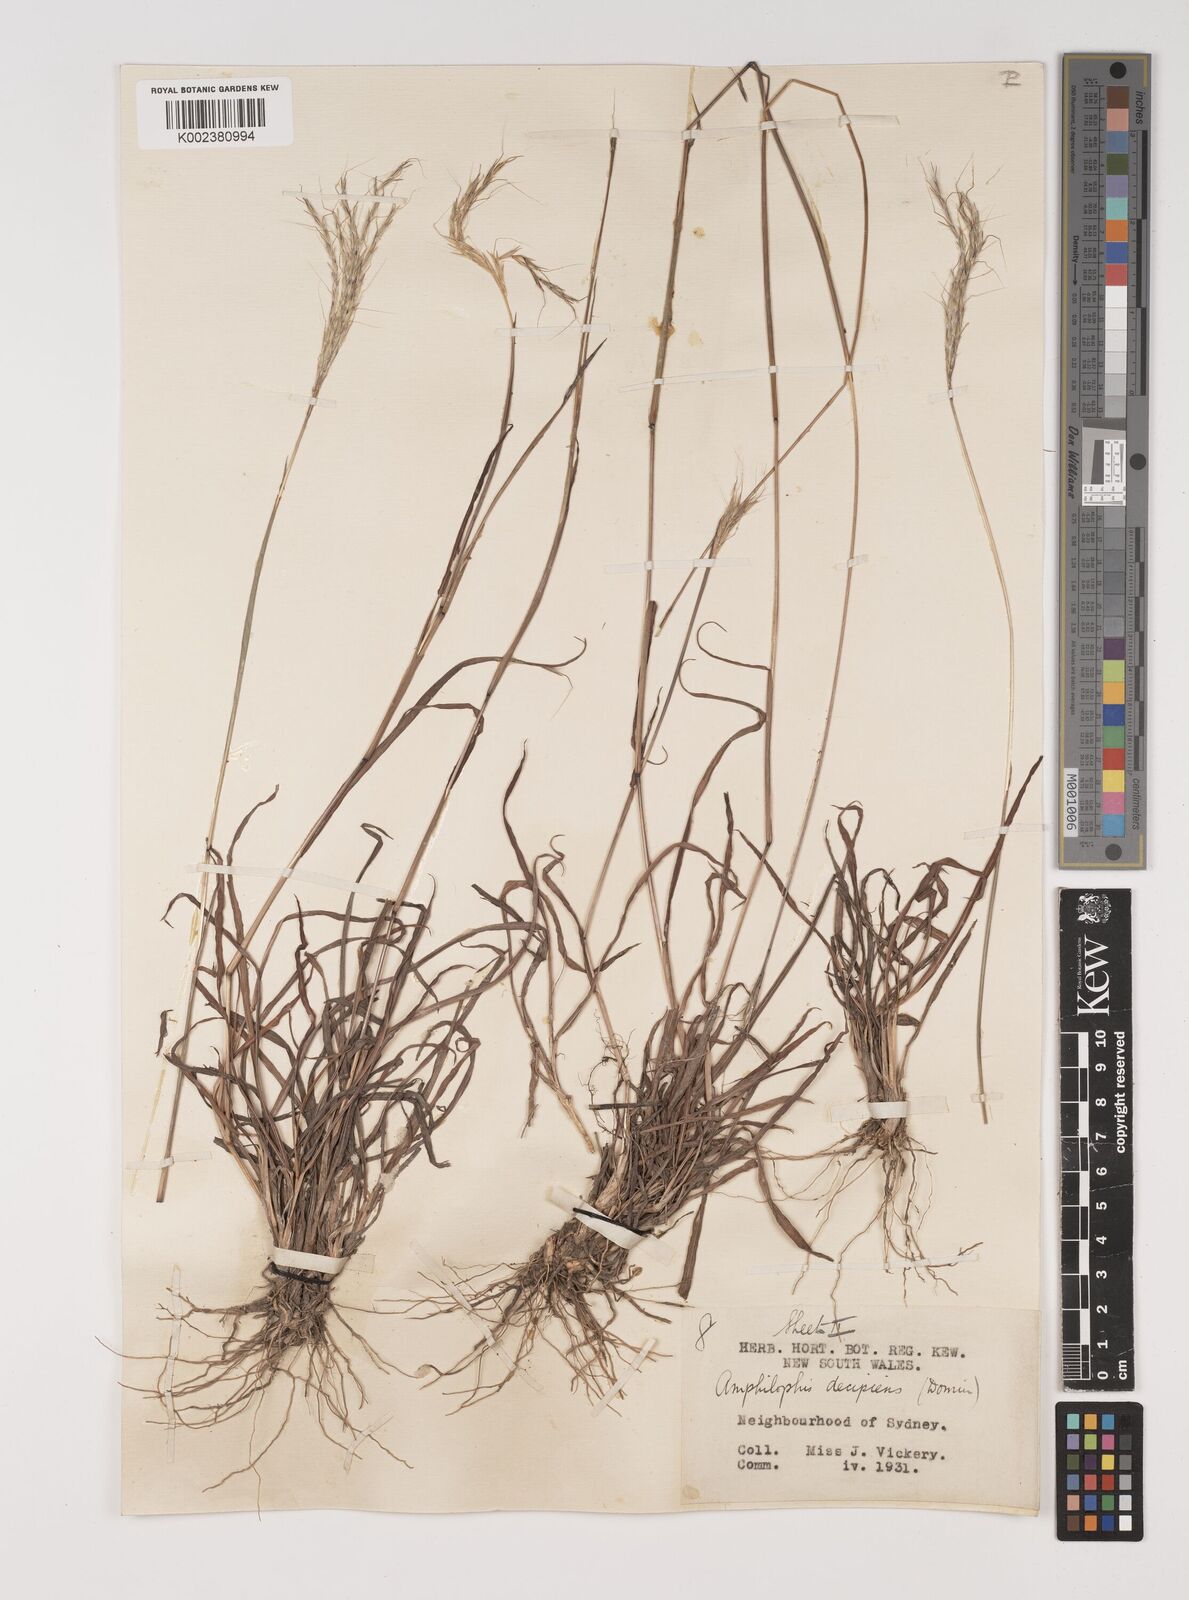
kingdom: Plantae
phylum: Tracheophyta
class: Liliopsida
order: Poales
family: Poaceae
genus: Bothriochloa
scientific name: Bothriochloa decipiens
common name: Pitted-bluegrass
